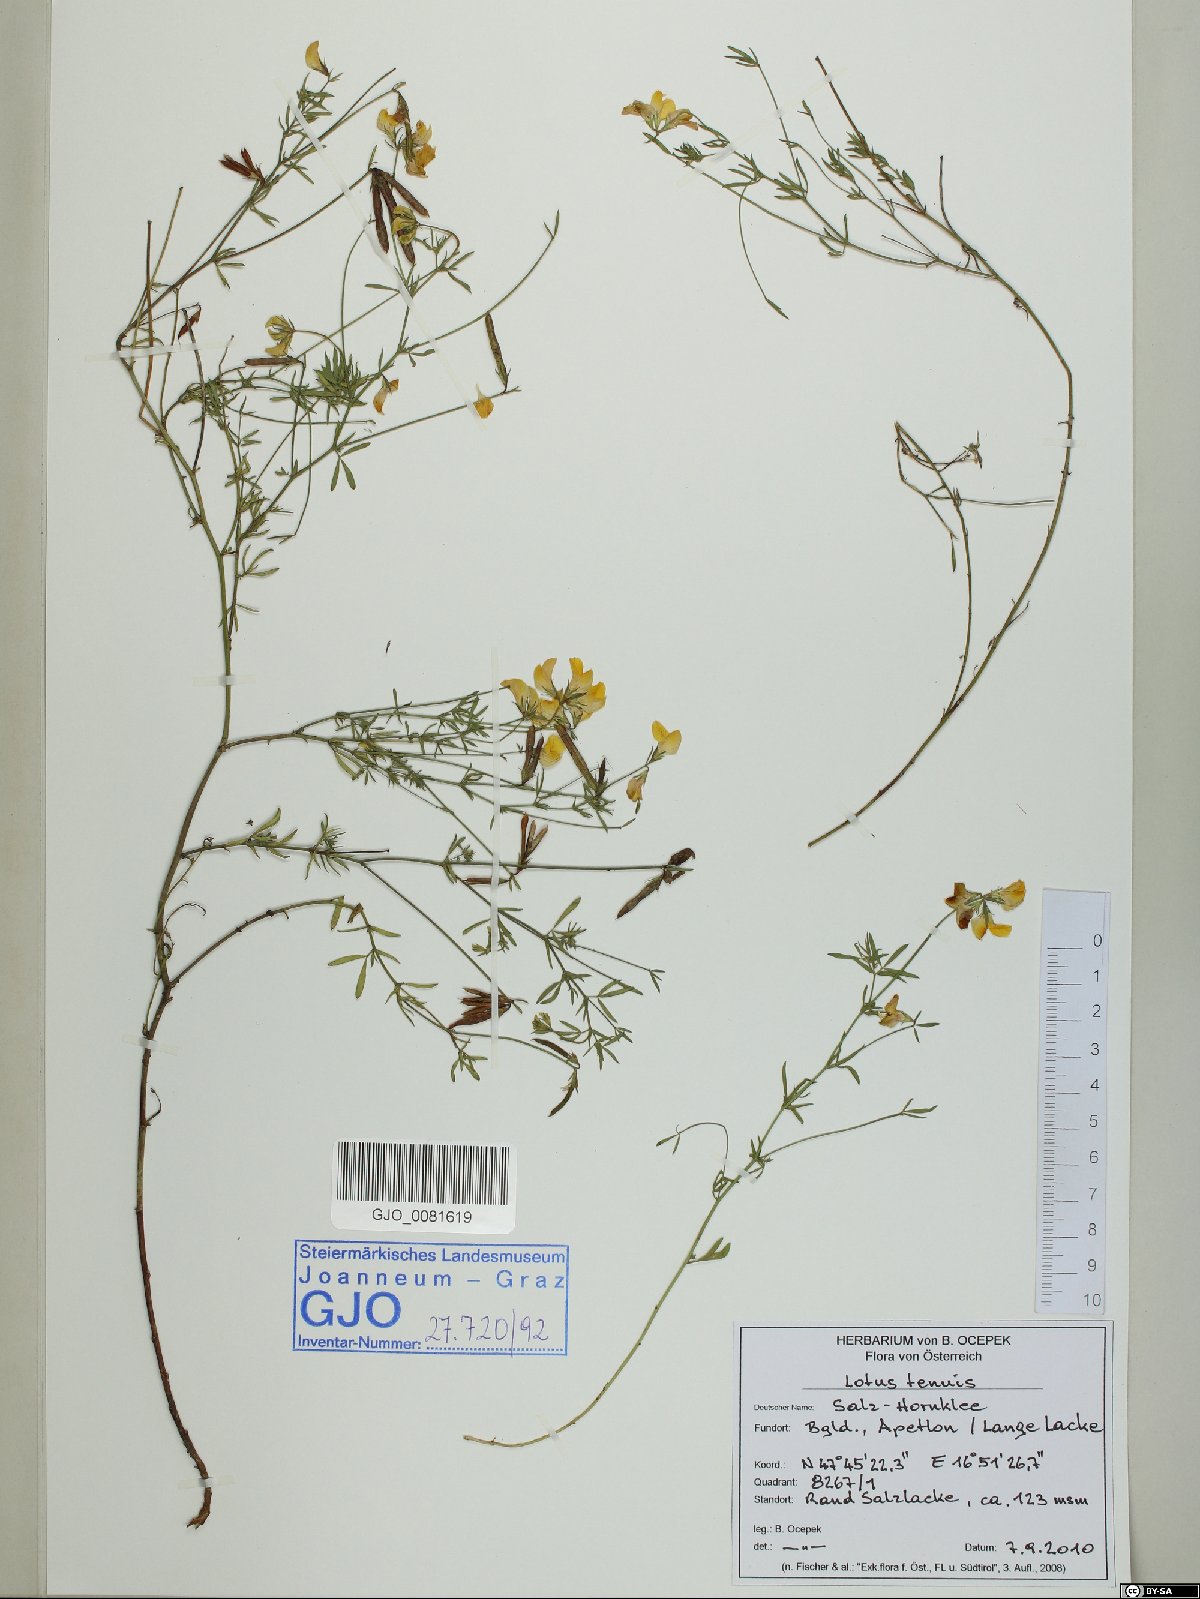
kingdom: Plantae
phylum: Tracheophyta
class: Magnoliopsida
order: Fabales
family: Fabaceae
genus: Lotus
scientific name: Lotus tenuis
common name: Narrow-leaved bird's-foot-trefoil
